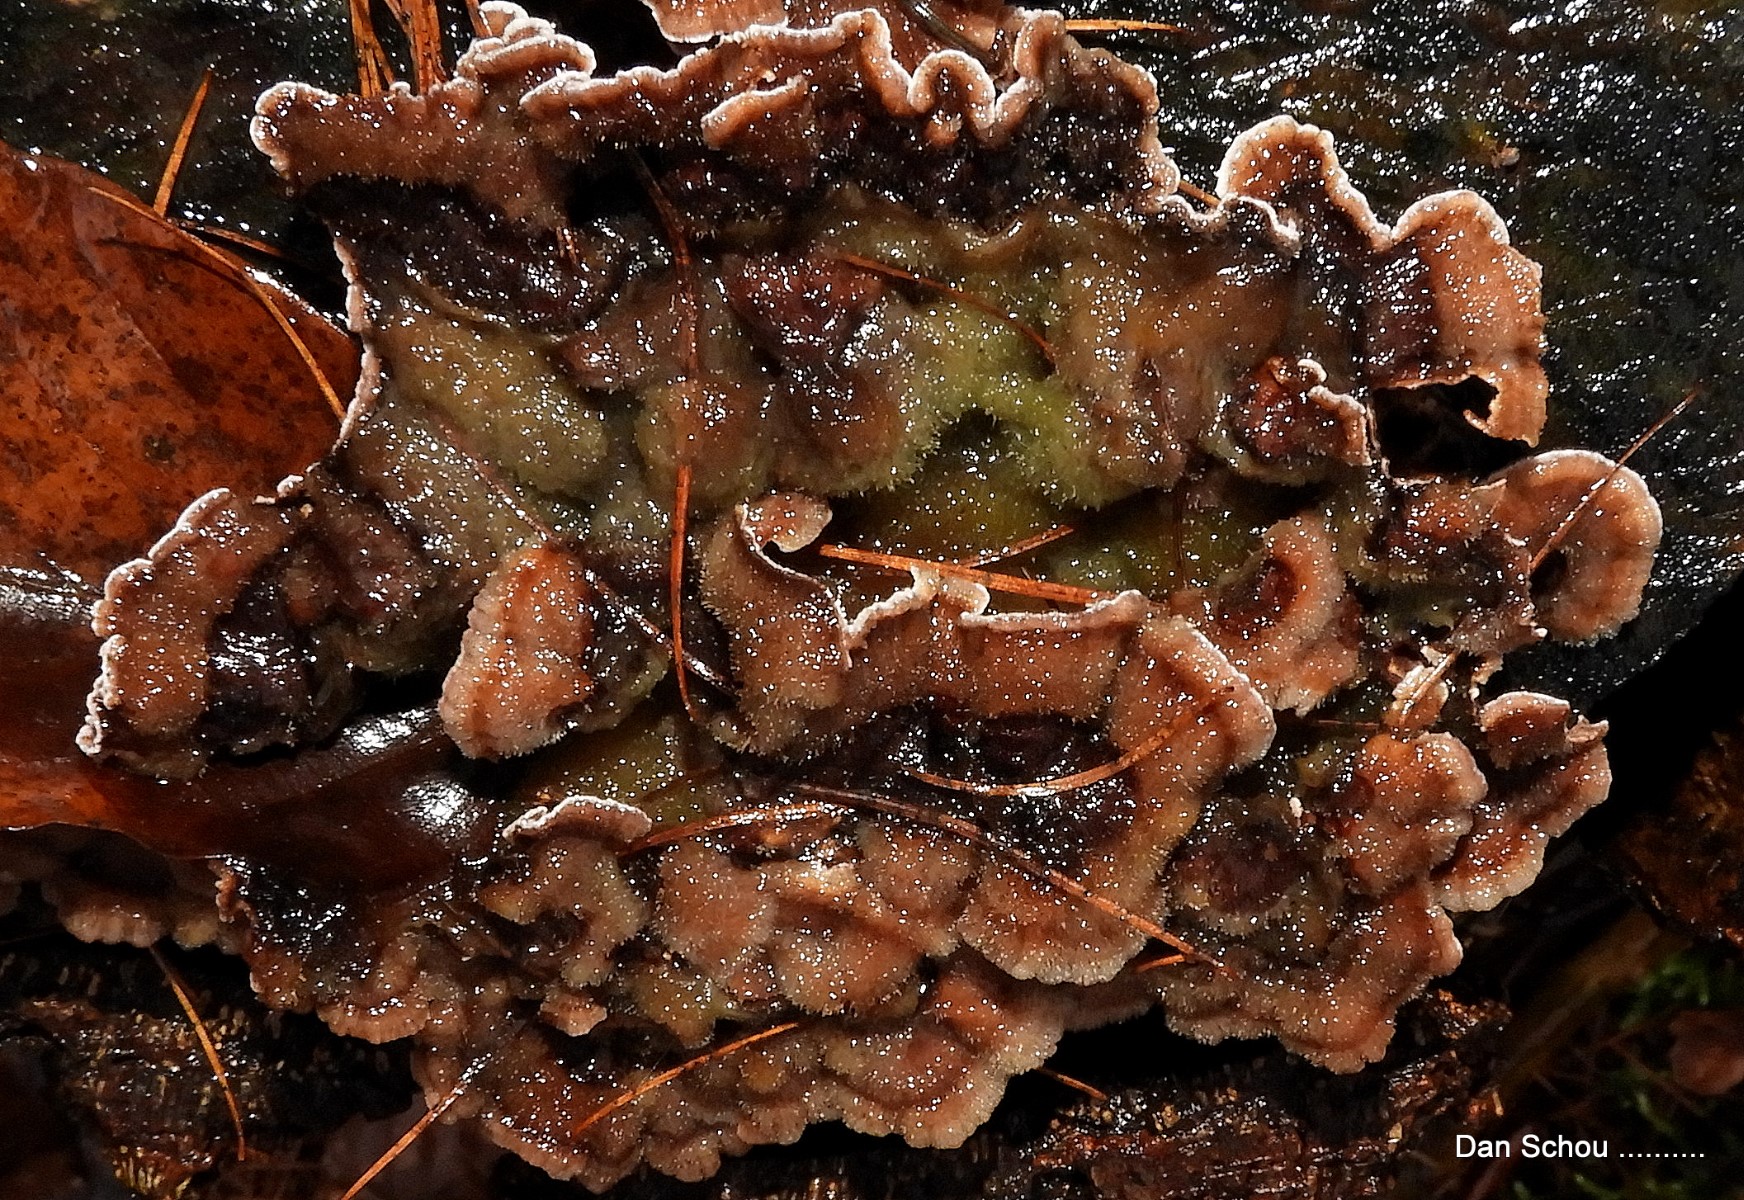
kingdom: Fungi
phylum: Basidiomycota
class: Agaricomycetes
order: Agaricales
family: Cyphellaceae
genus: Chondrostereum
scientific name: Chondrostereum purpureum
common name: purpurlædersvamp
